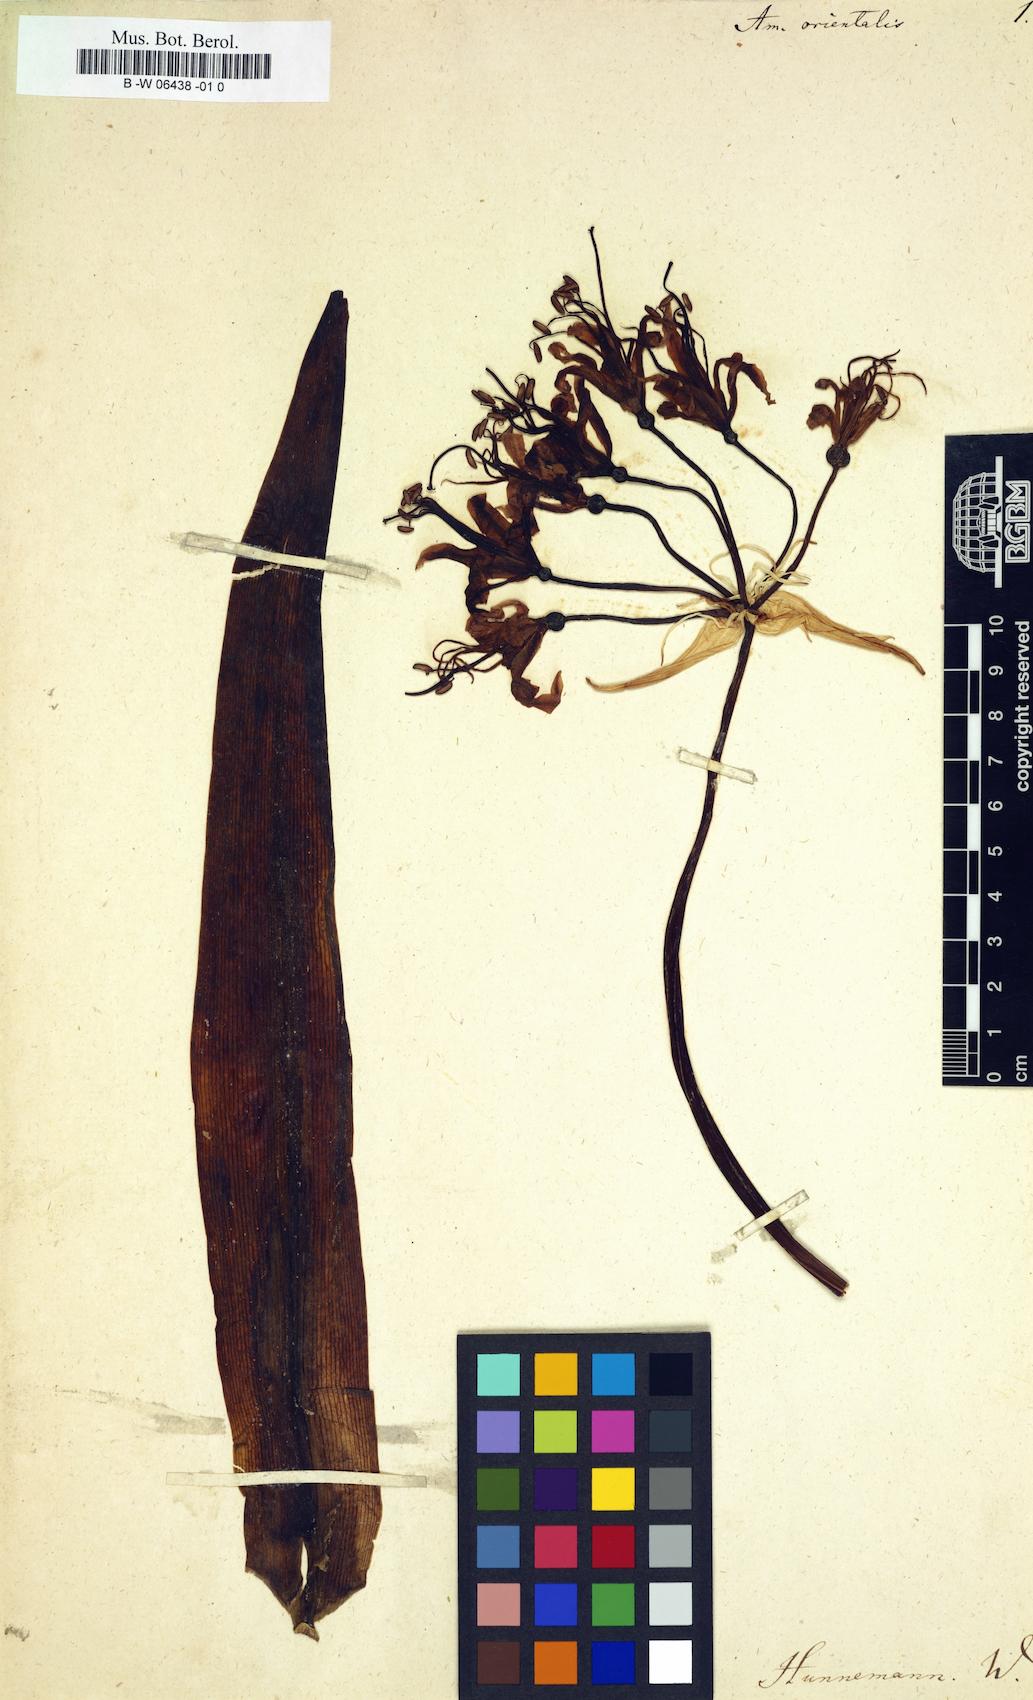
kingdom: Plantae
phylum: Tracheophyta
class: Liliopsida
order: Asparagales
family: Amaryllidaceae
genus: Brunsvigia
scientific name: Brunsvigia orientalis
